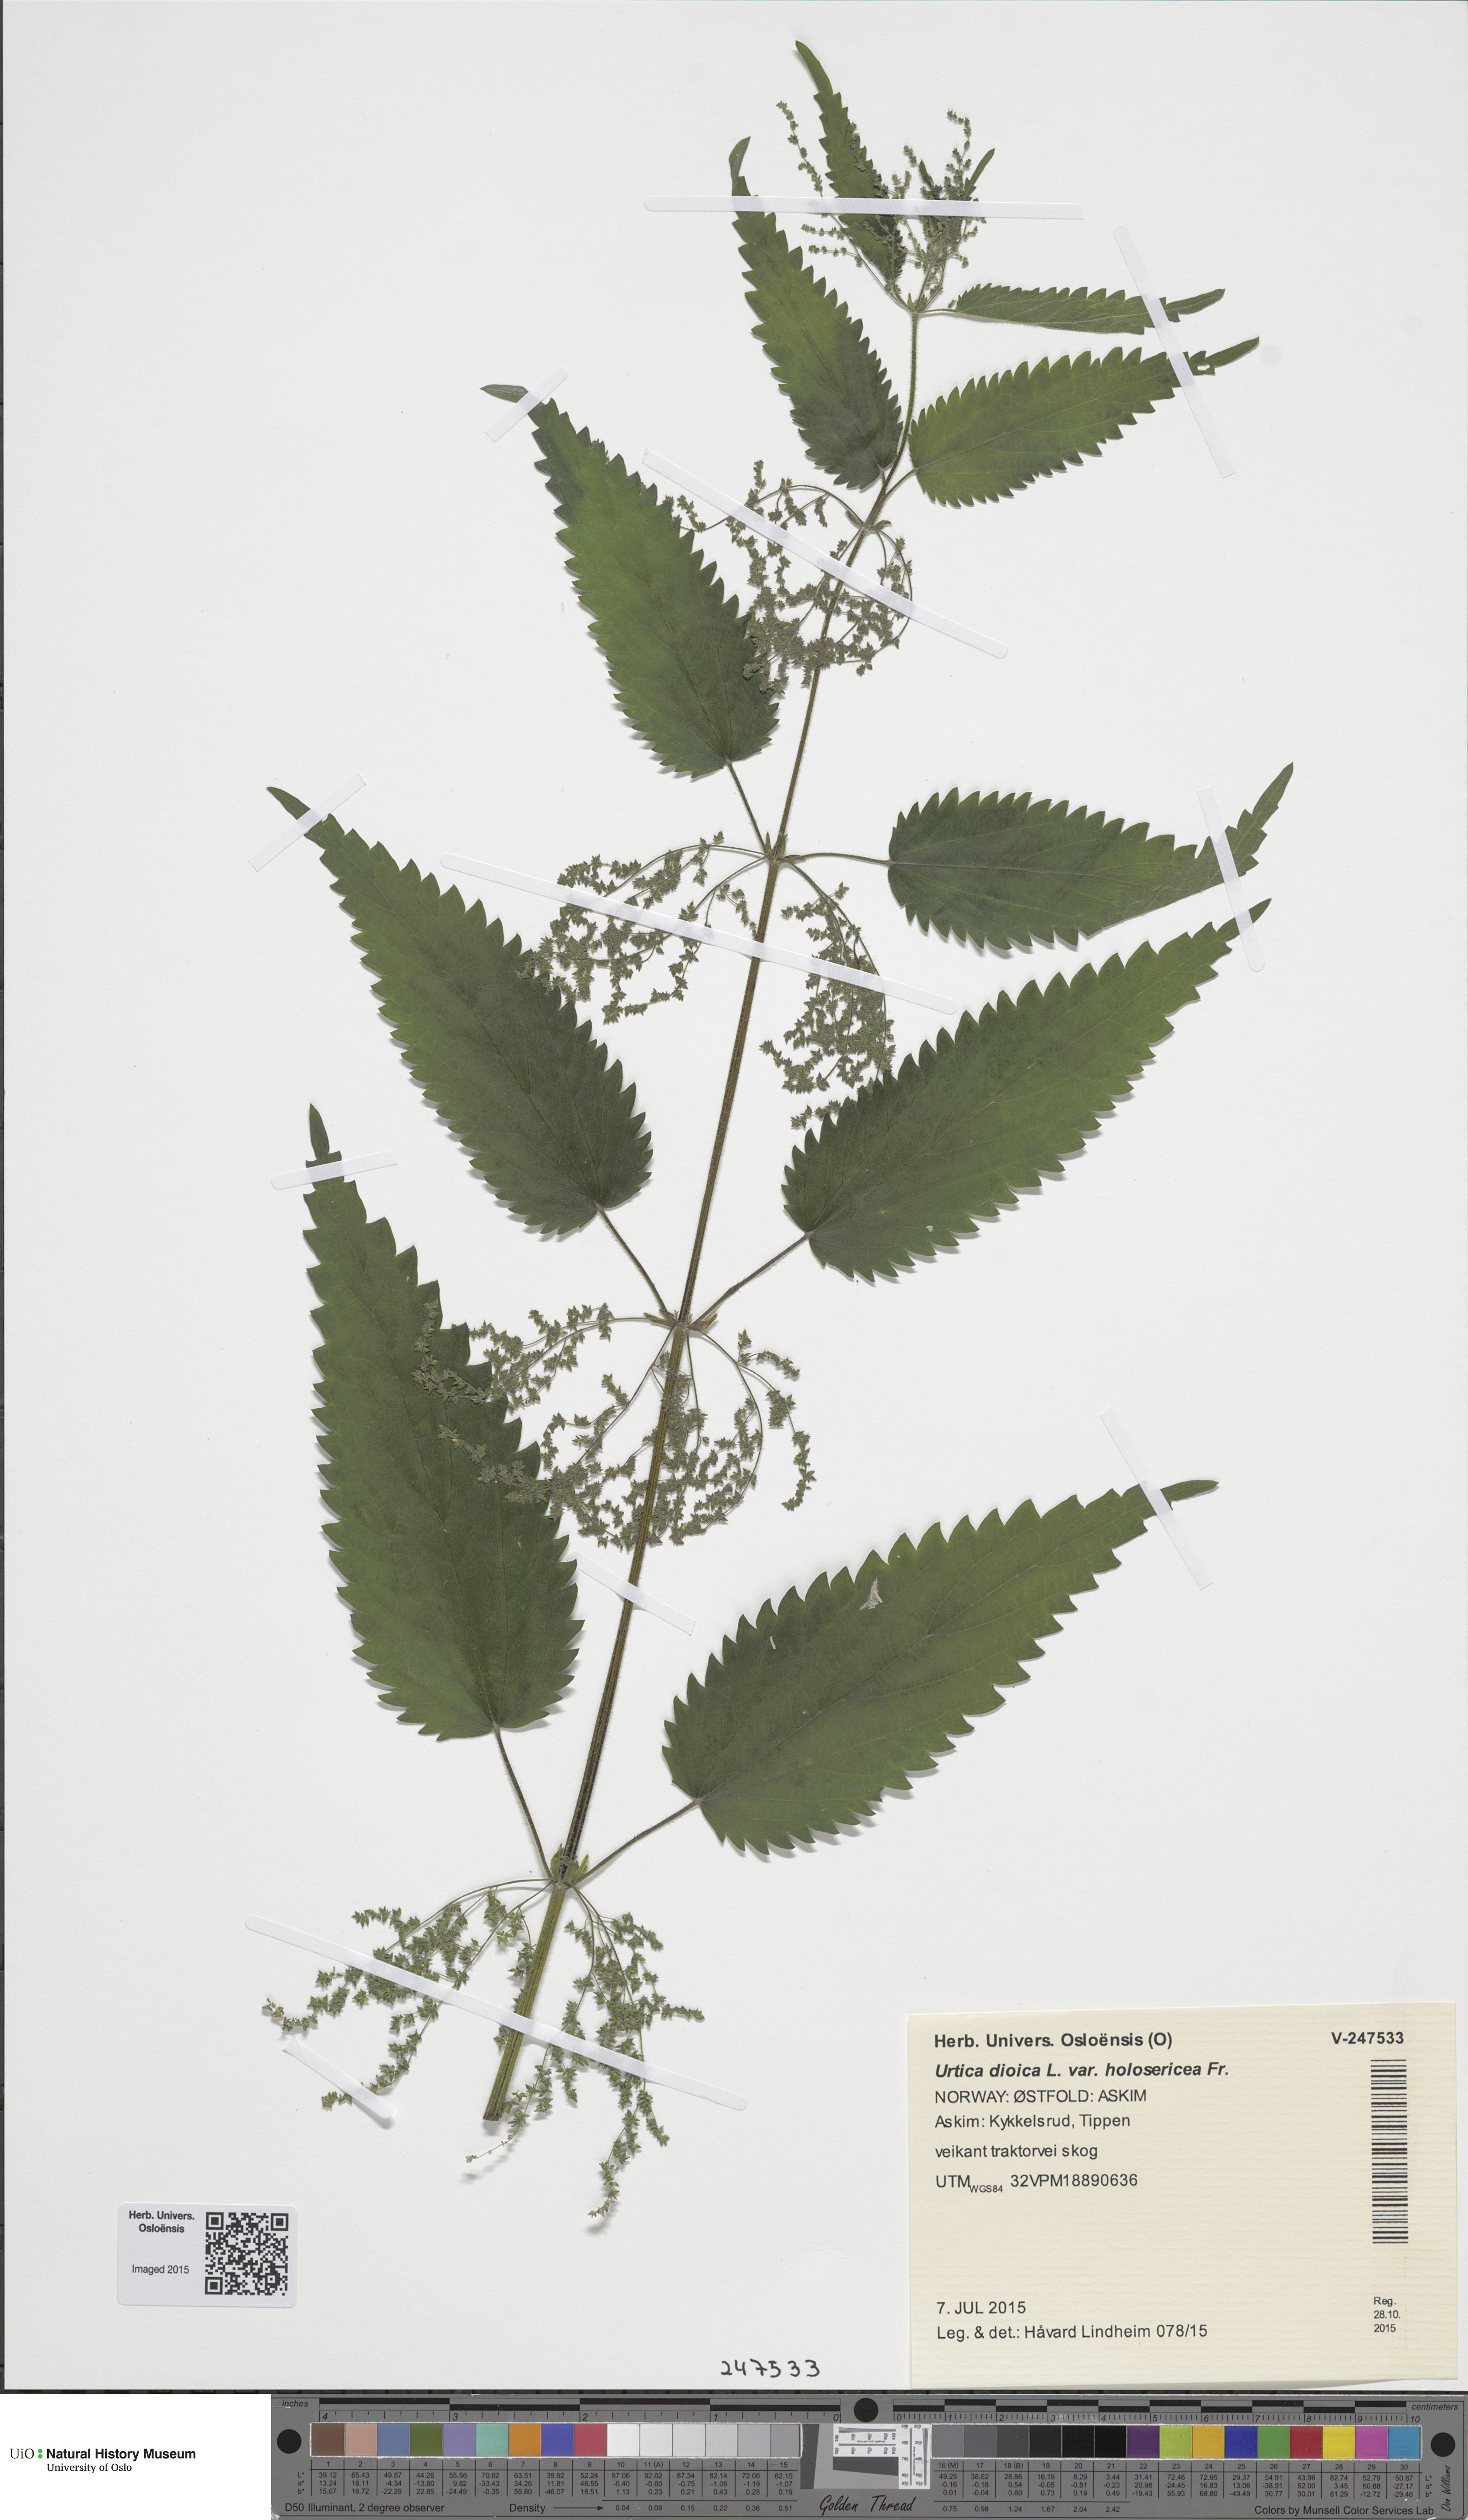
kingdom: Plantae
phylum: Tracheophyta
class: Magnoliopsida
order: Rosales
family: Urticaceae
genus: Urtica
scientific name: Urtica dioica
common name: Common nettle
